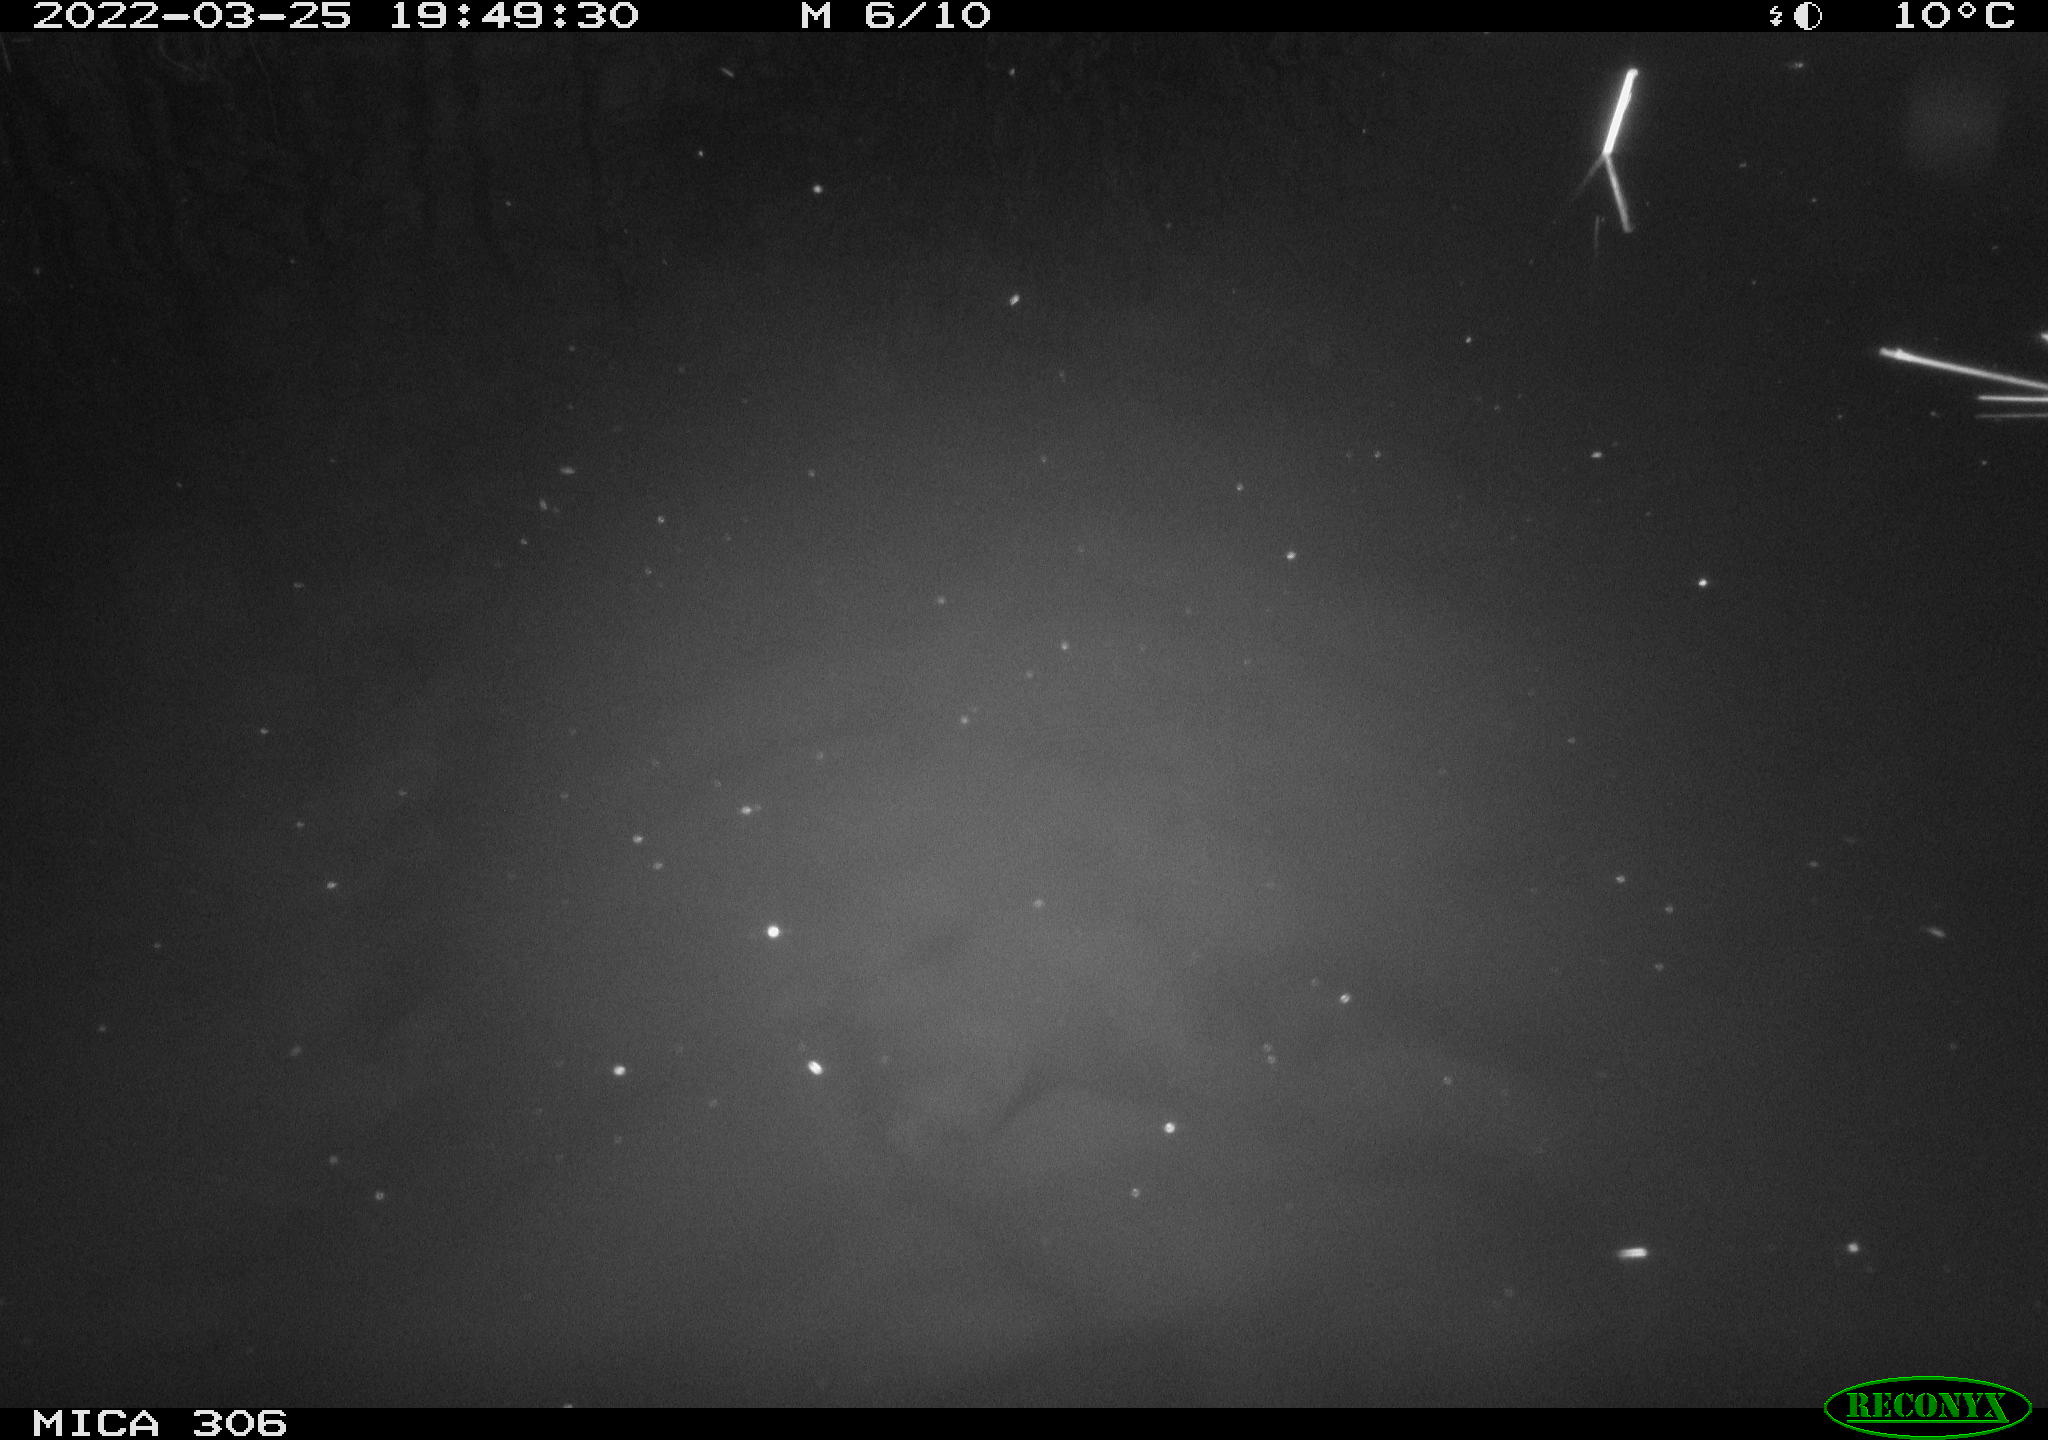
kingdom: Animalia
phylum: Chordata
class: Aves
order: Gruiformes
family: Rallidae
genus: Gallinula
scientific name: Gallinula chloropus
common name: Common moorhen
